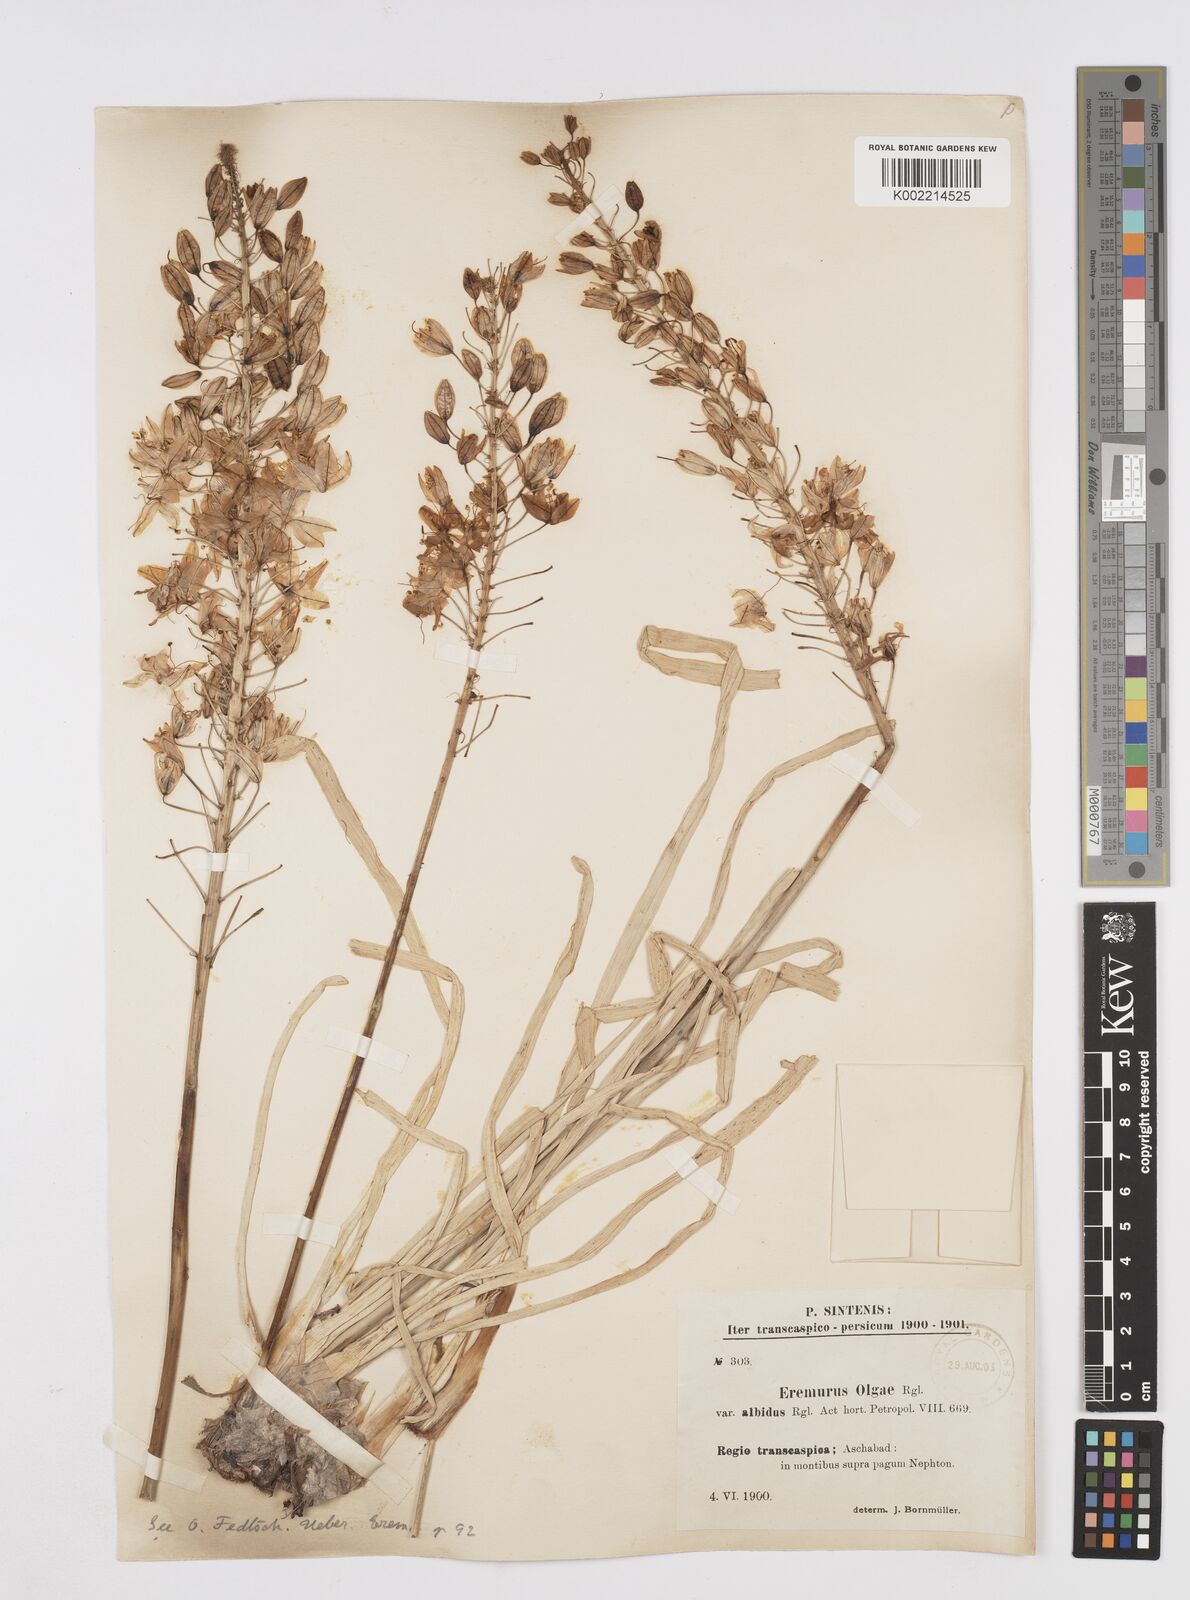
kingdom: Plantae
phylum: Tracheophyta
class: Liliopsida
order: Asparagales
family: Asphodelaceae
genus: Eremurus
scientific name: Eremurus olgae
